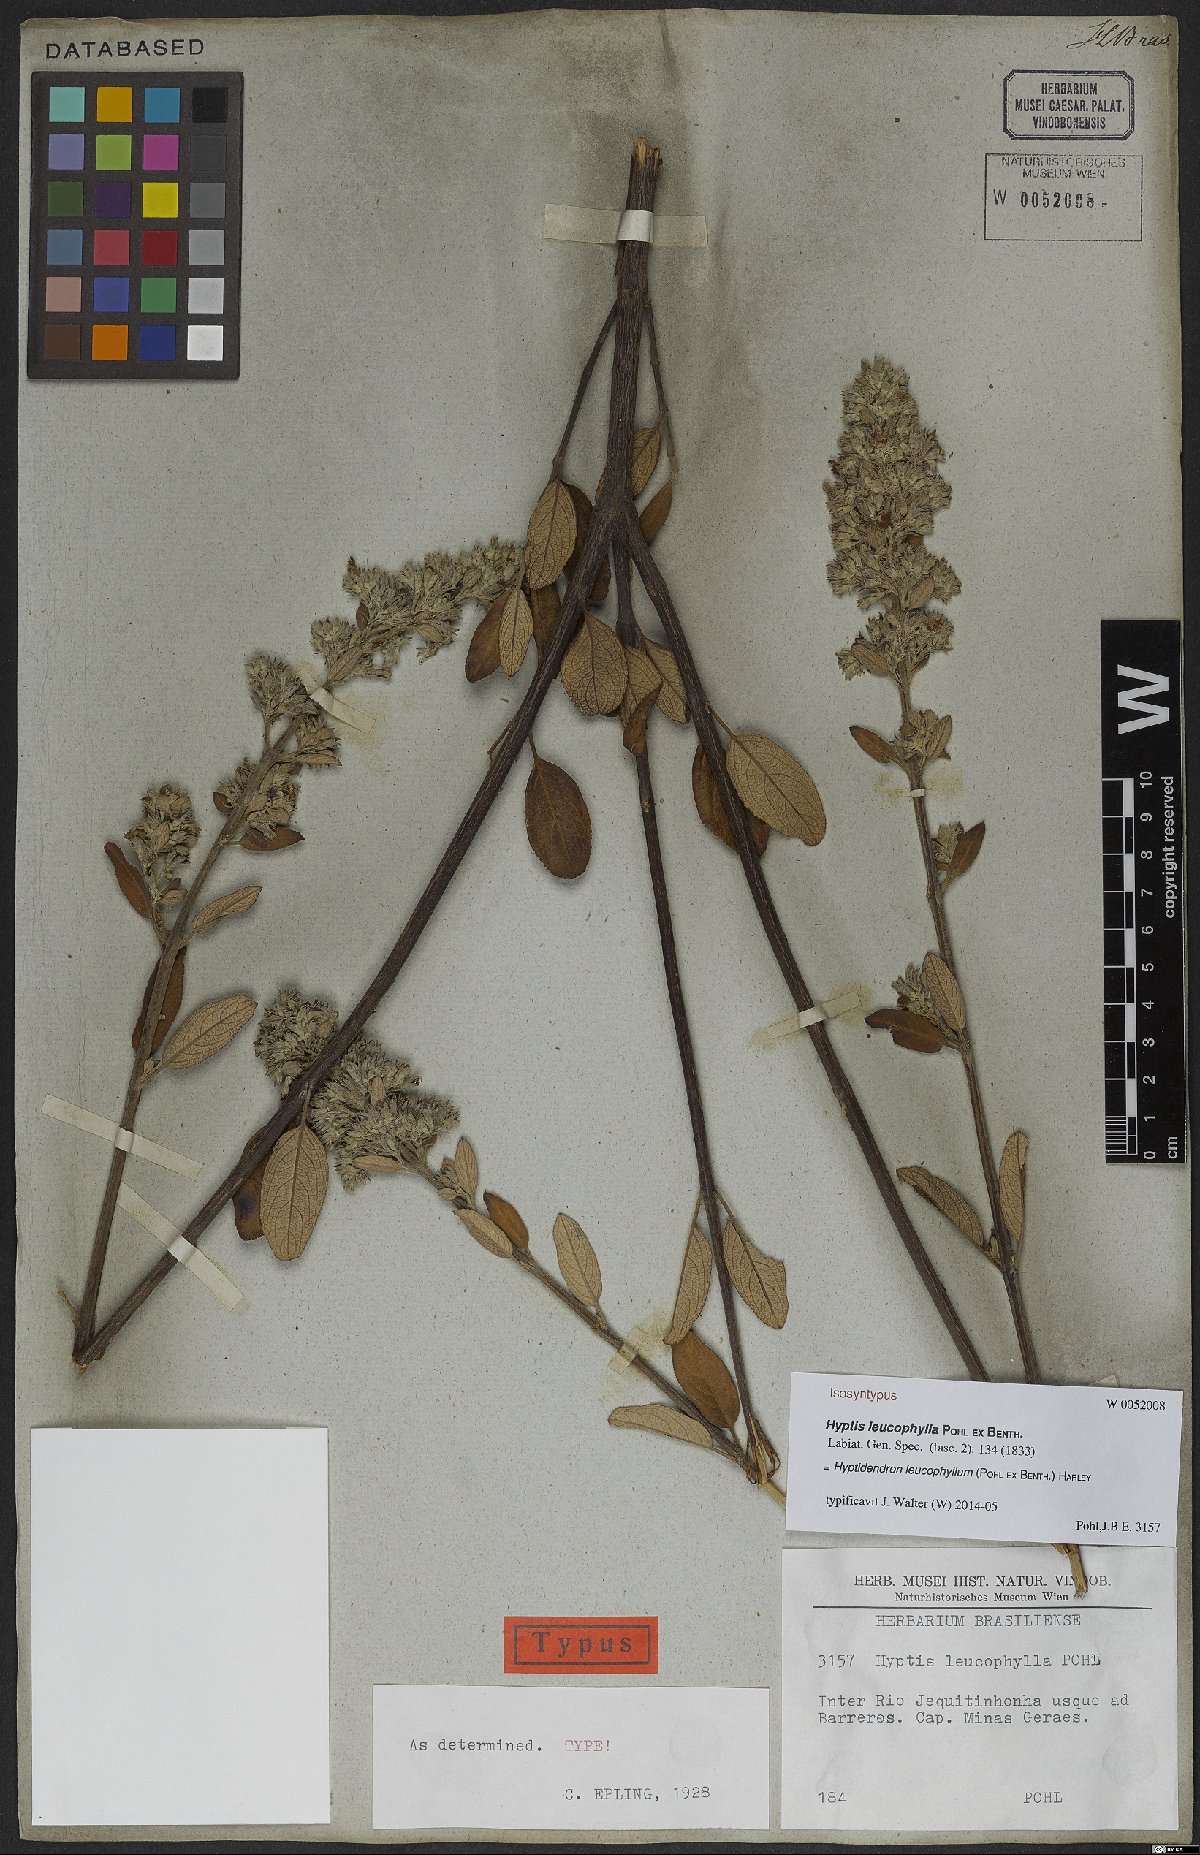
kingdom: Plantae
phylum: Tracheophyta
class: Magnoliopsida
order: Lamiales
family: Lamiaceae
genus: Hyptidendron
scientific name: Hyptidendron leucophyllum
